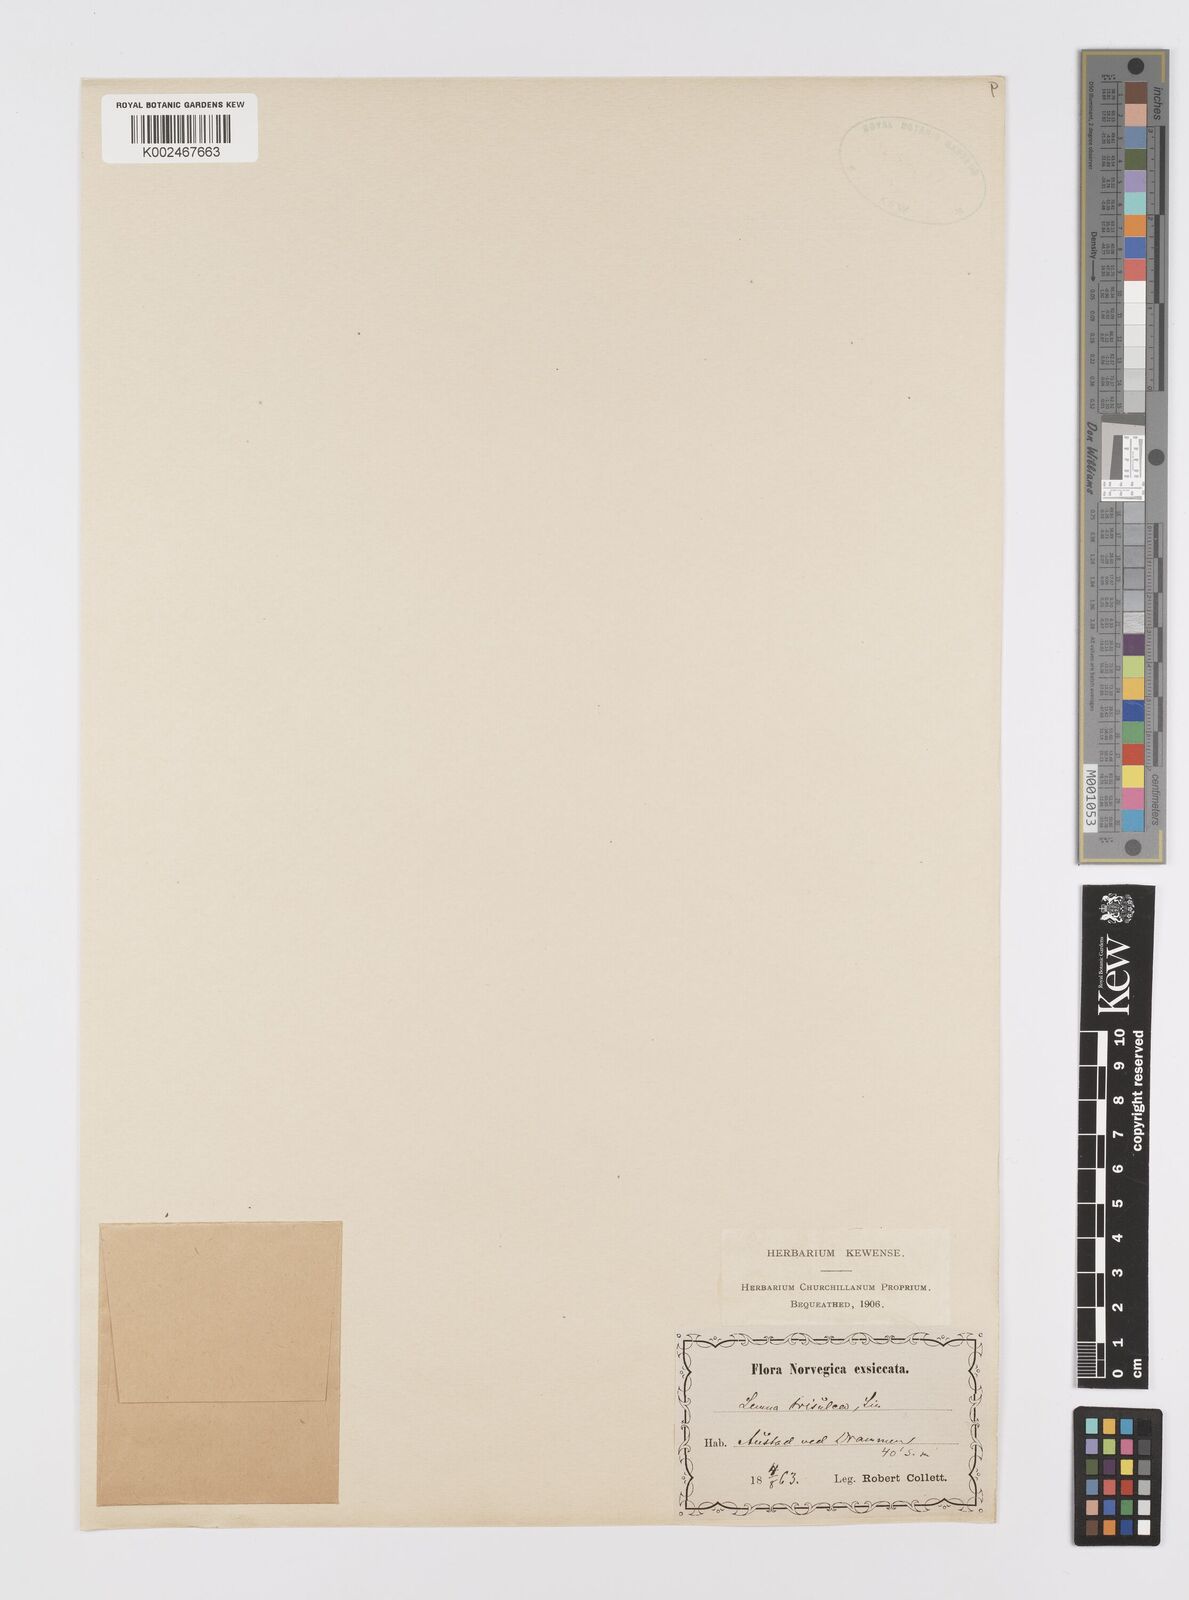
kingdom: Plantae
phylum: Tracheophyta
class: Liliopsida
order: Alismatales
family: Araceae
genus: Lemna
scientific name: Lemna trisulca
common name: Ivy-leaved duckweed
